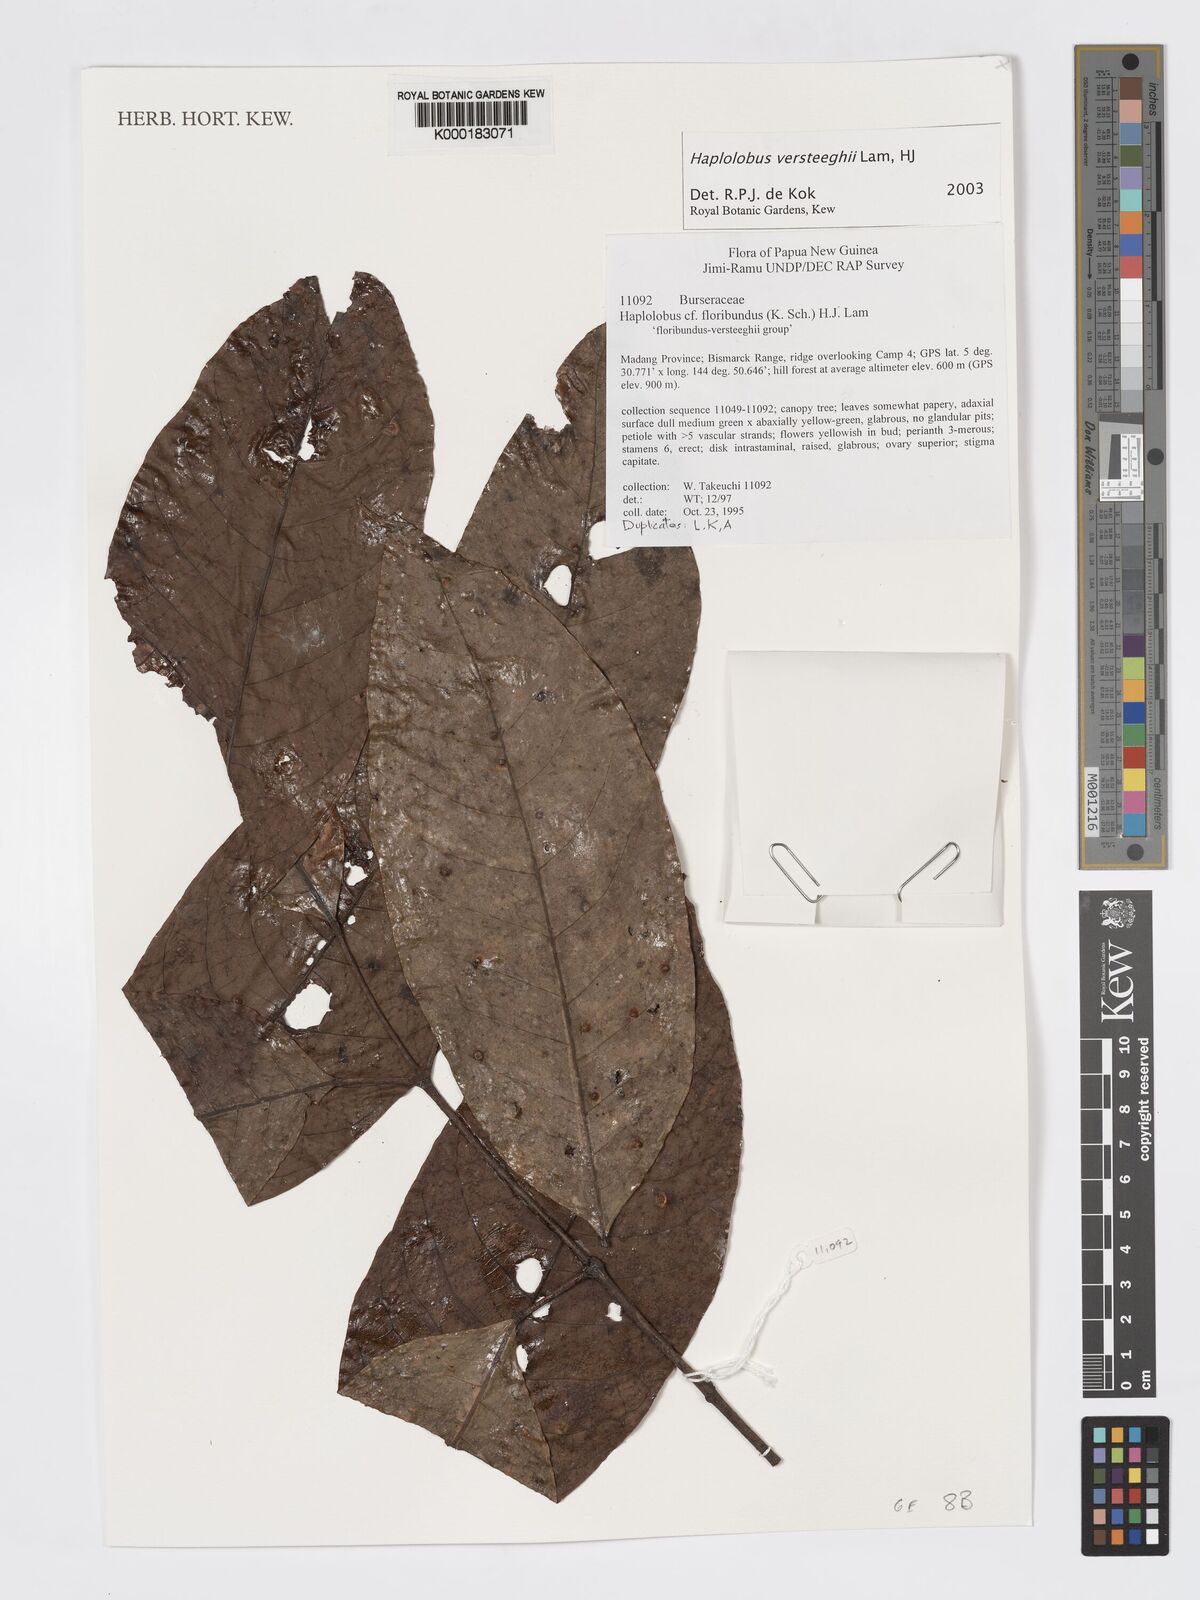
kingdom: Plantae
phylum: Tracheophyta
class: Magnoliopsida
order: Sapindales
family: Burseraceae
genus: Haplolobus
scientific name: Haplolobus
